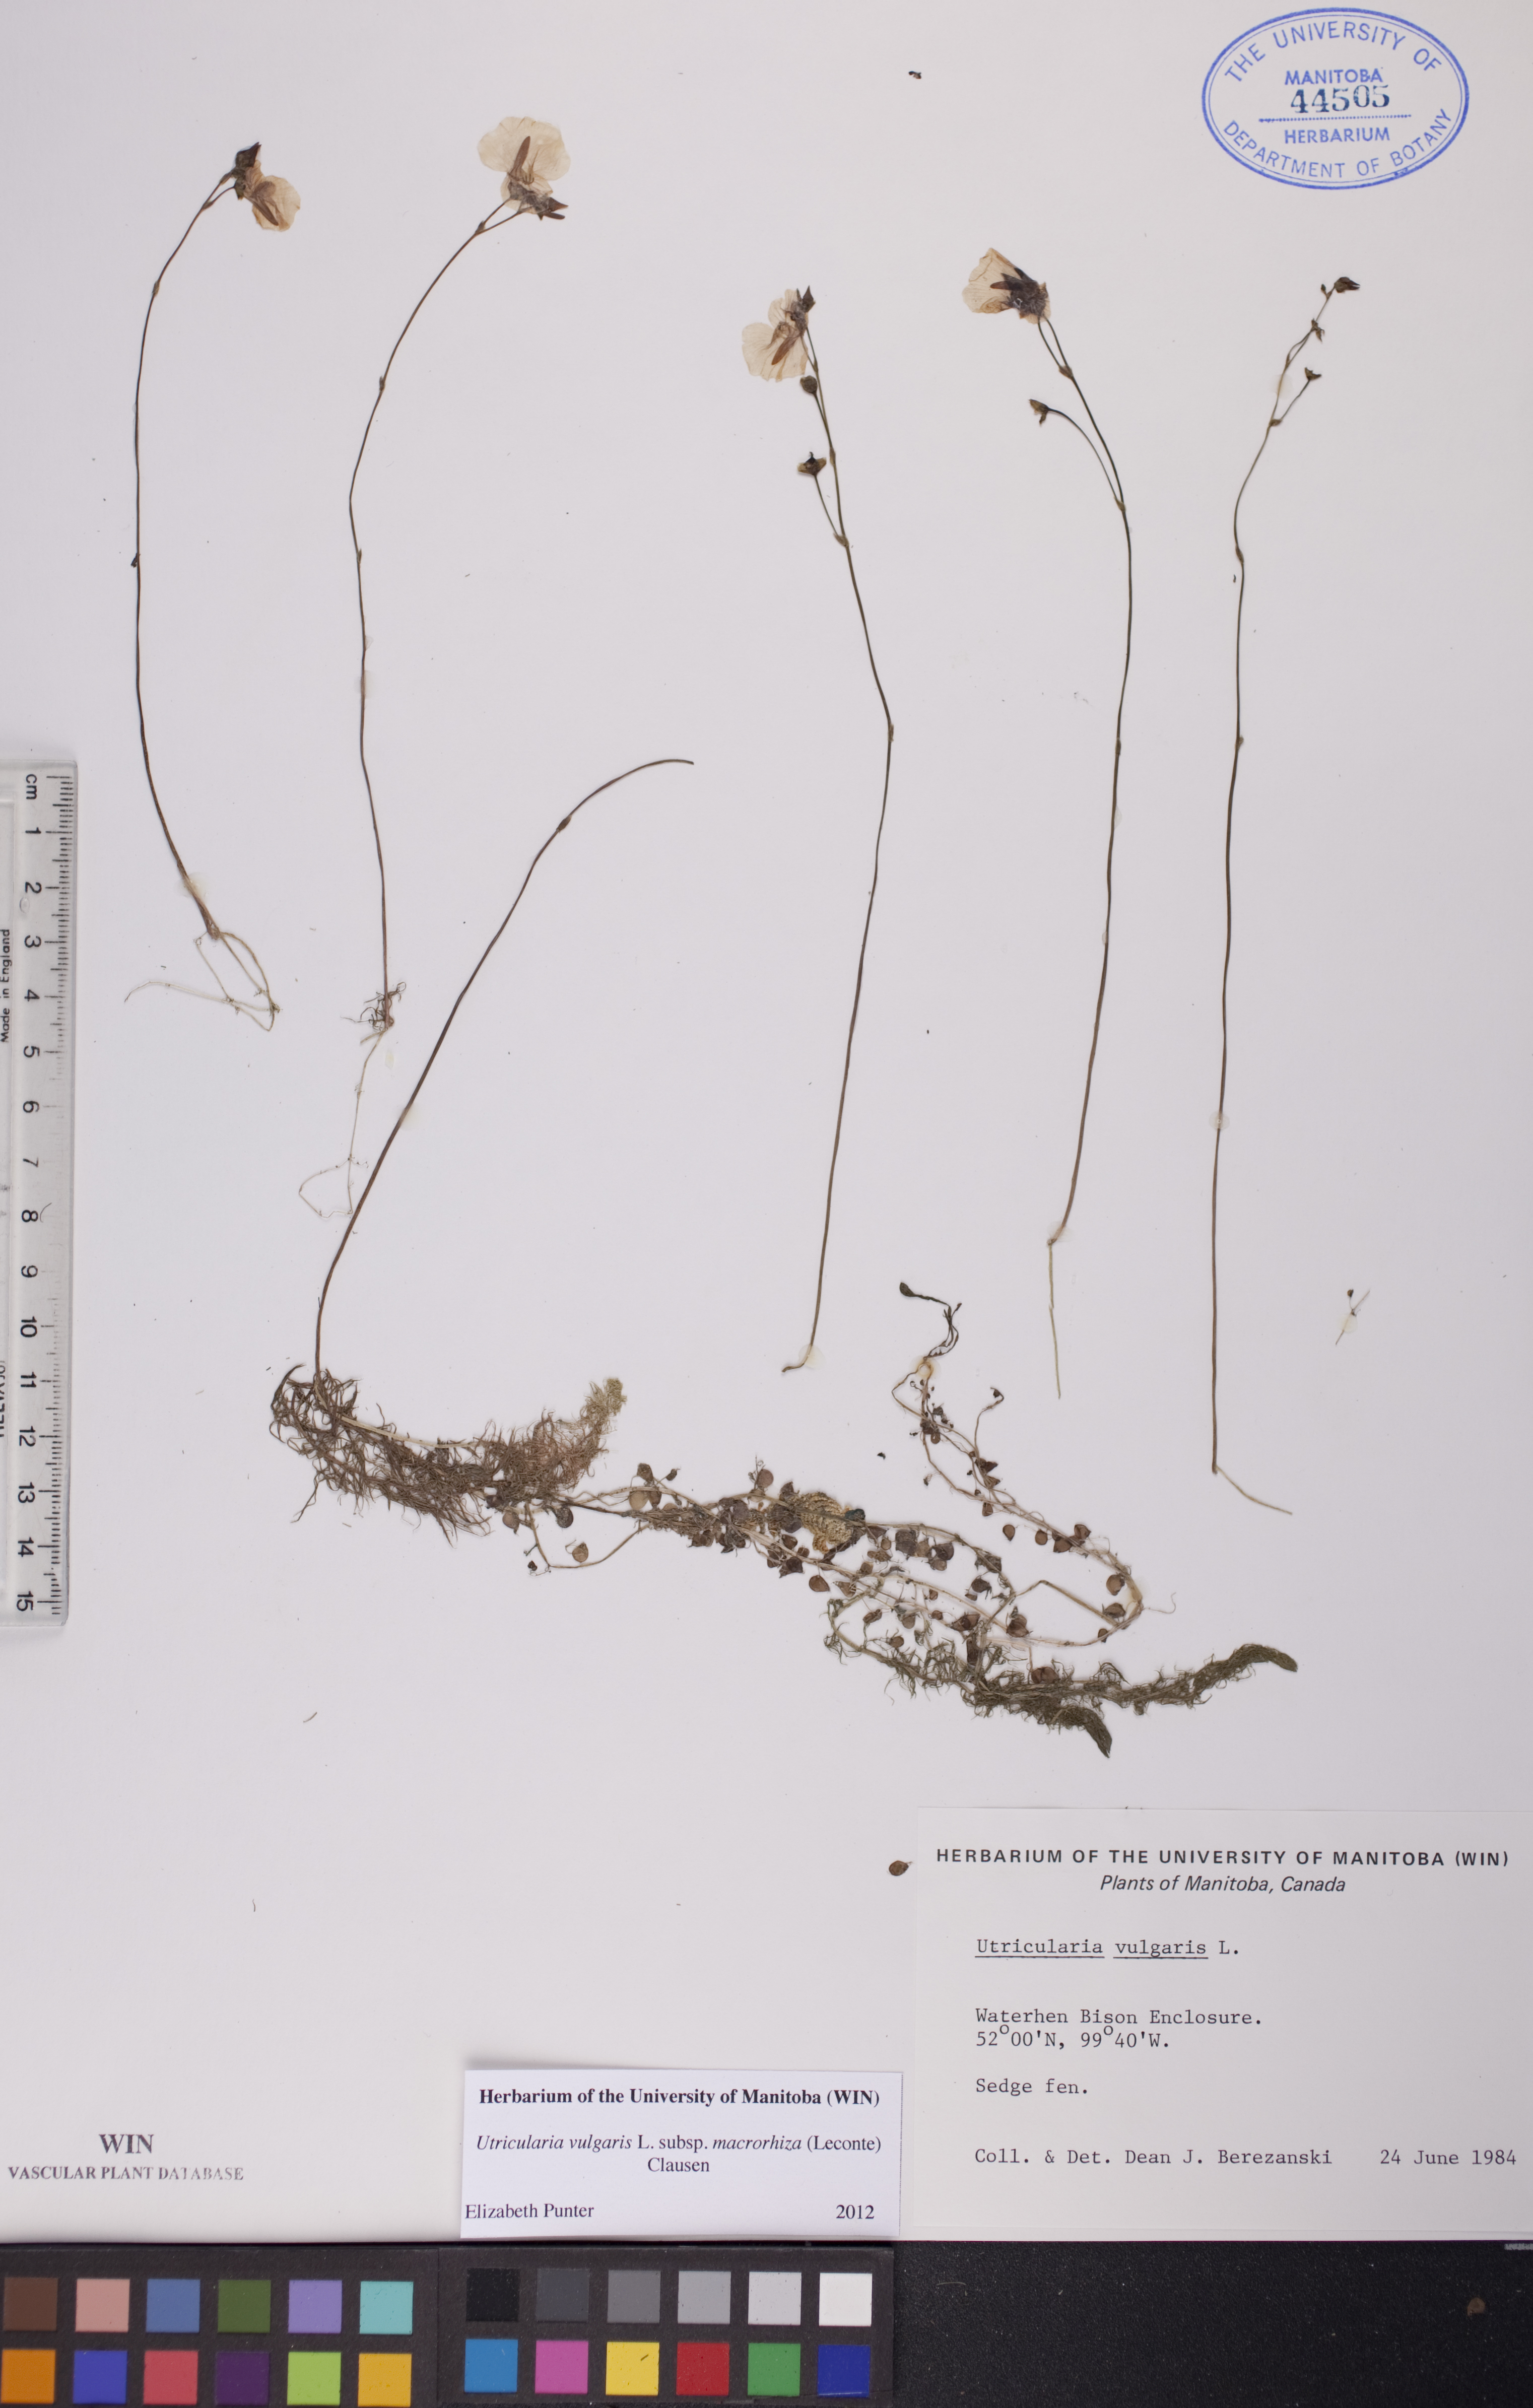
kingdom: Plantae
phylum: Tracheophyta
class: Magnoliopsida
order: Lamiales
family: Lentibulariaceae
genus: Utricularia
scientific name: Utricularia macrorhiza
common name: Common bladderwort
